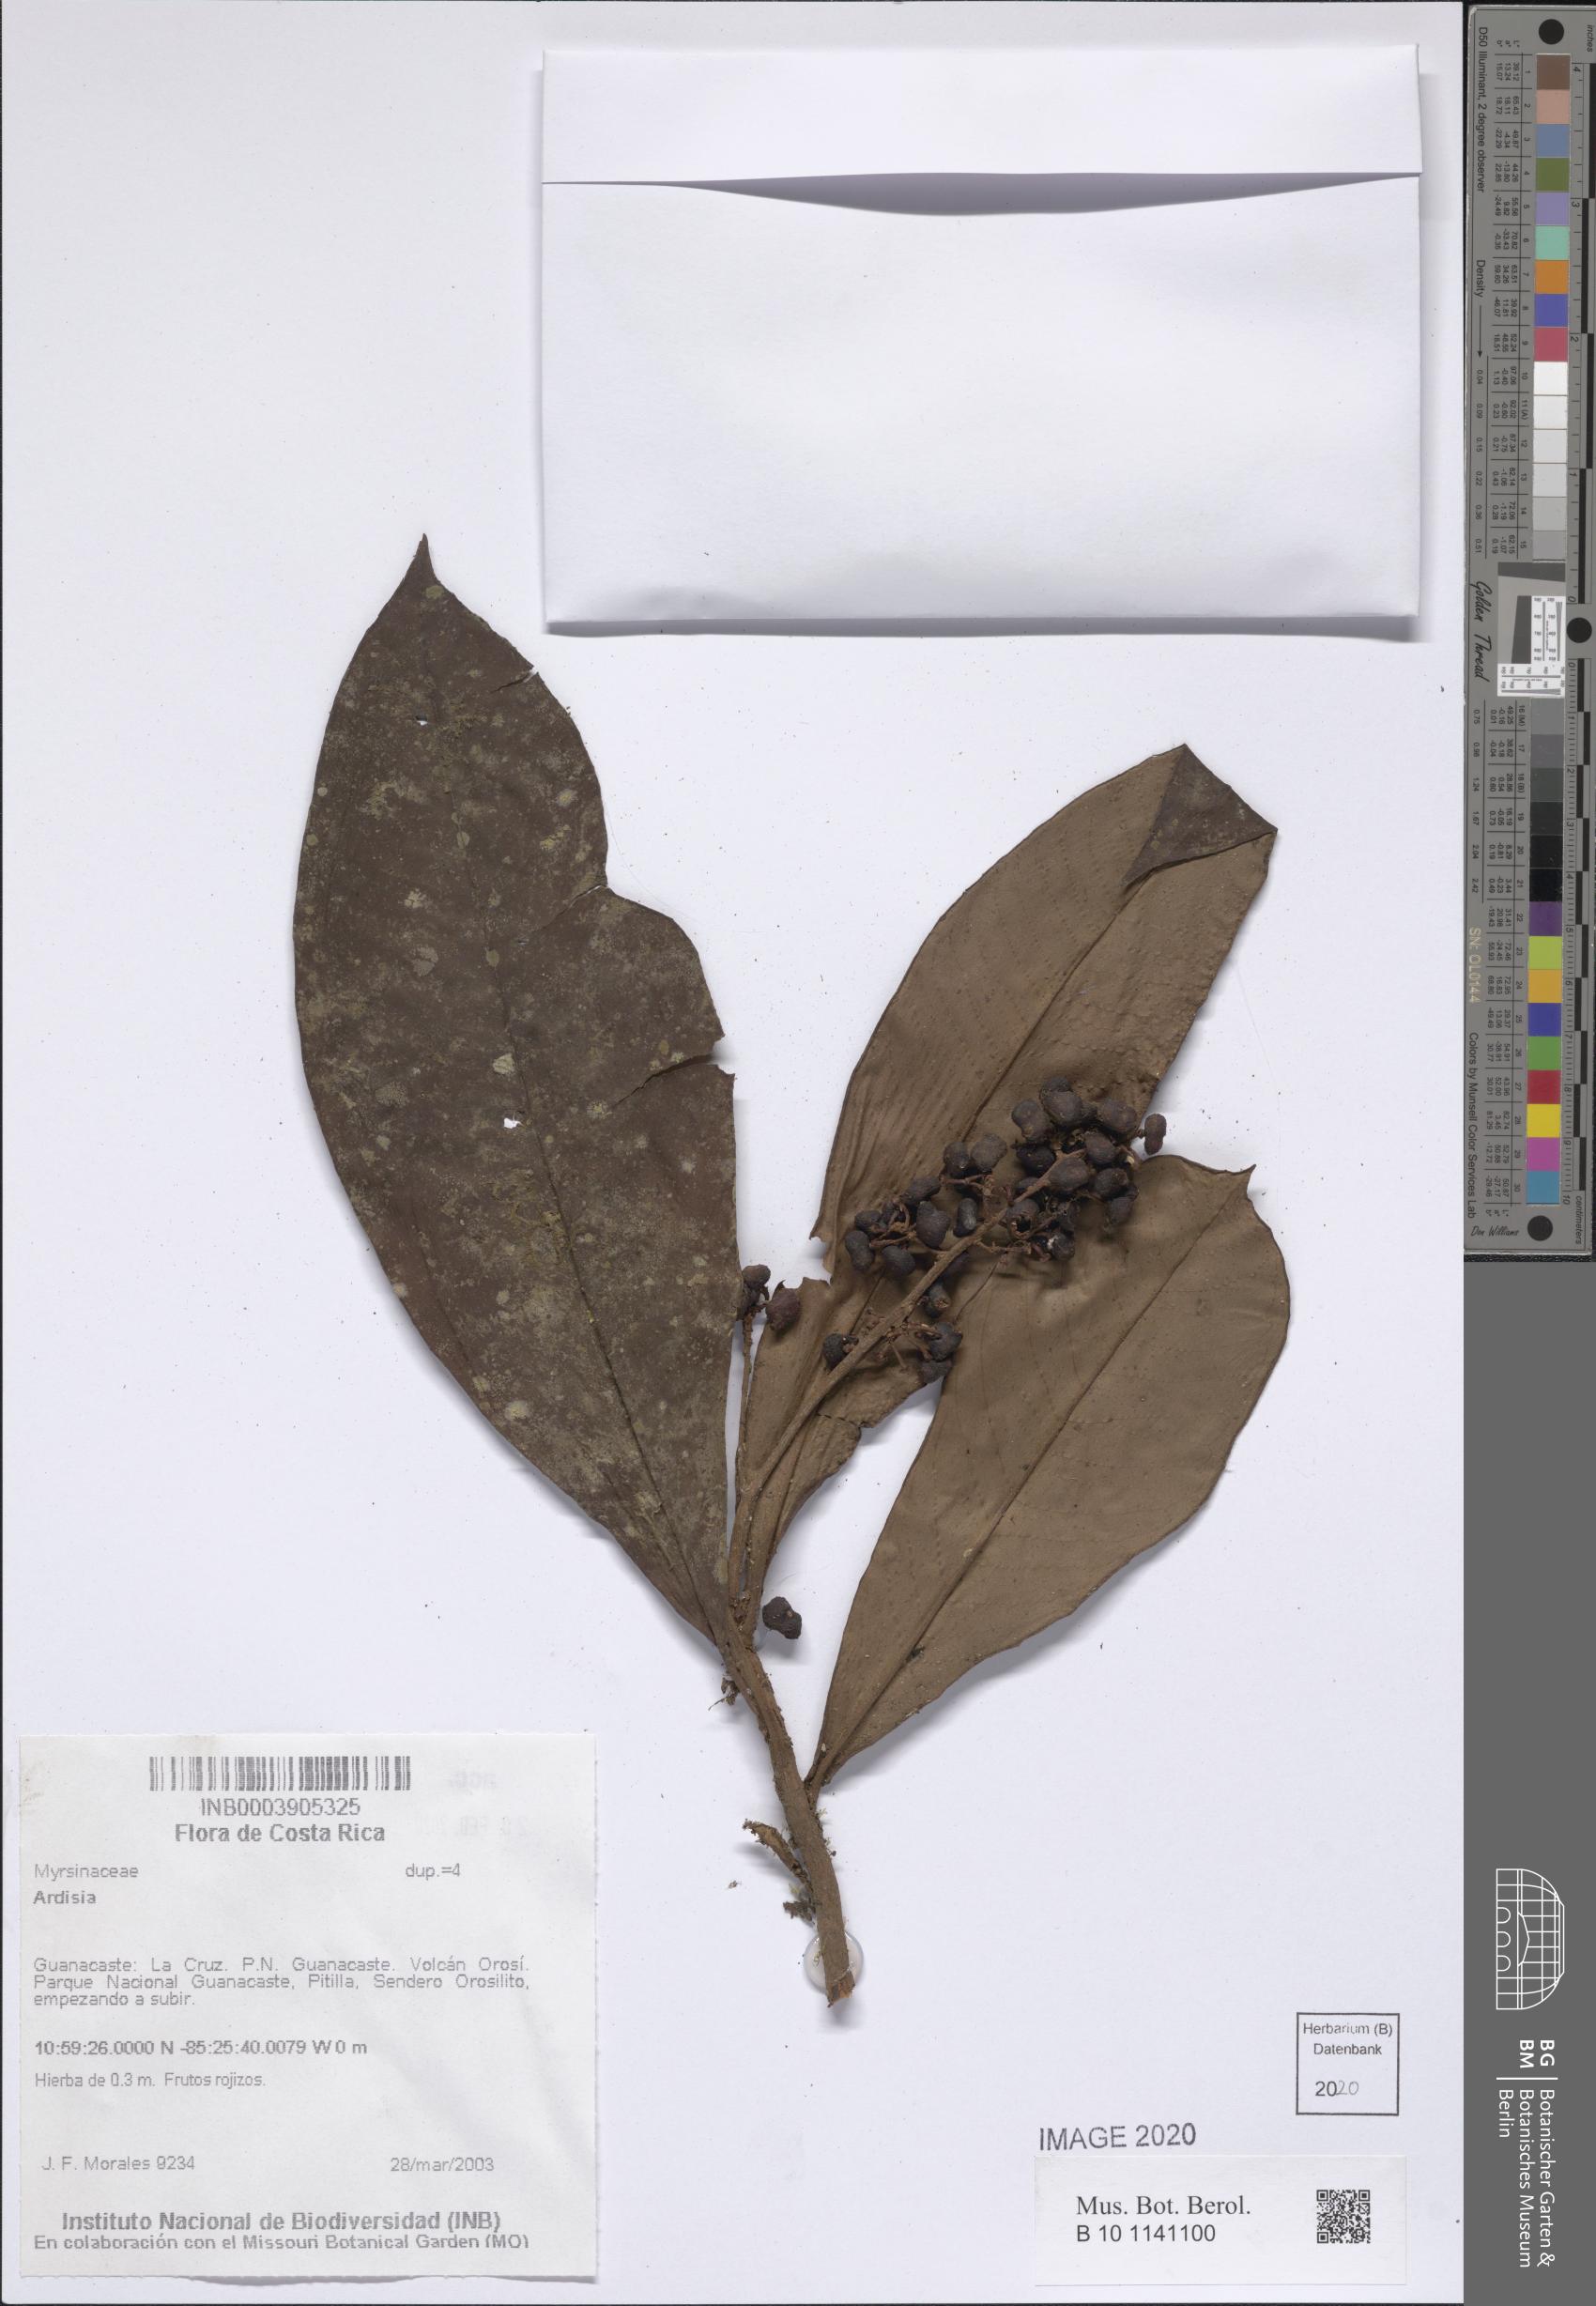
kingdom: Plantae
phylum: Tracheophyta
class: Magnoliopsida
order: Ericales
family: Primulaceae
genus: Ardisia
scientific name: Ardisia
